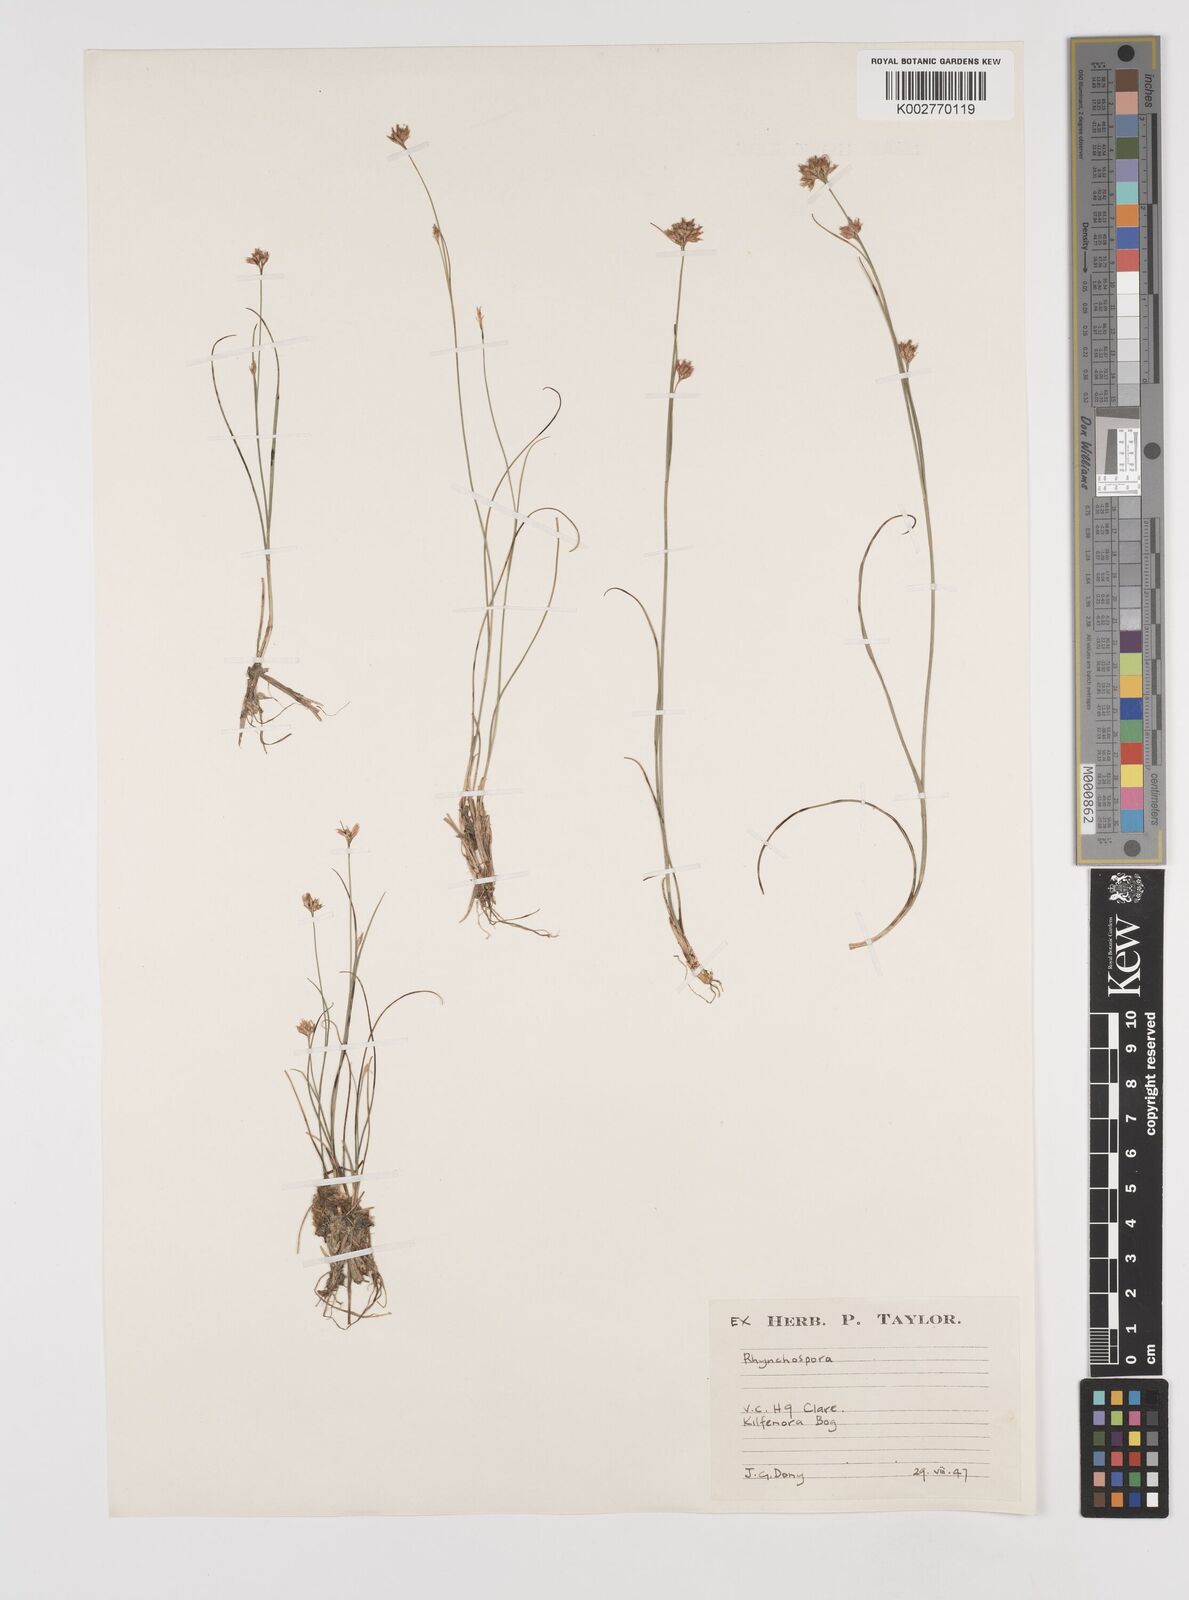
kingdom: Plantae
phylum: Tracheophyta
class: Liliopsida
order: Poales
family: Cyperaceae
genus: Rhynchospora
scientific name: Rhynchospora alba
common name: White beak-sedge
